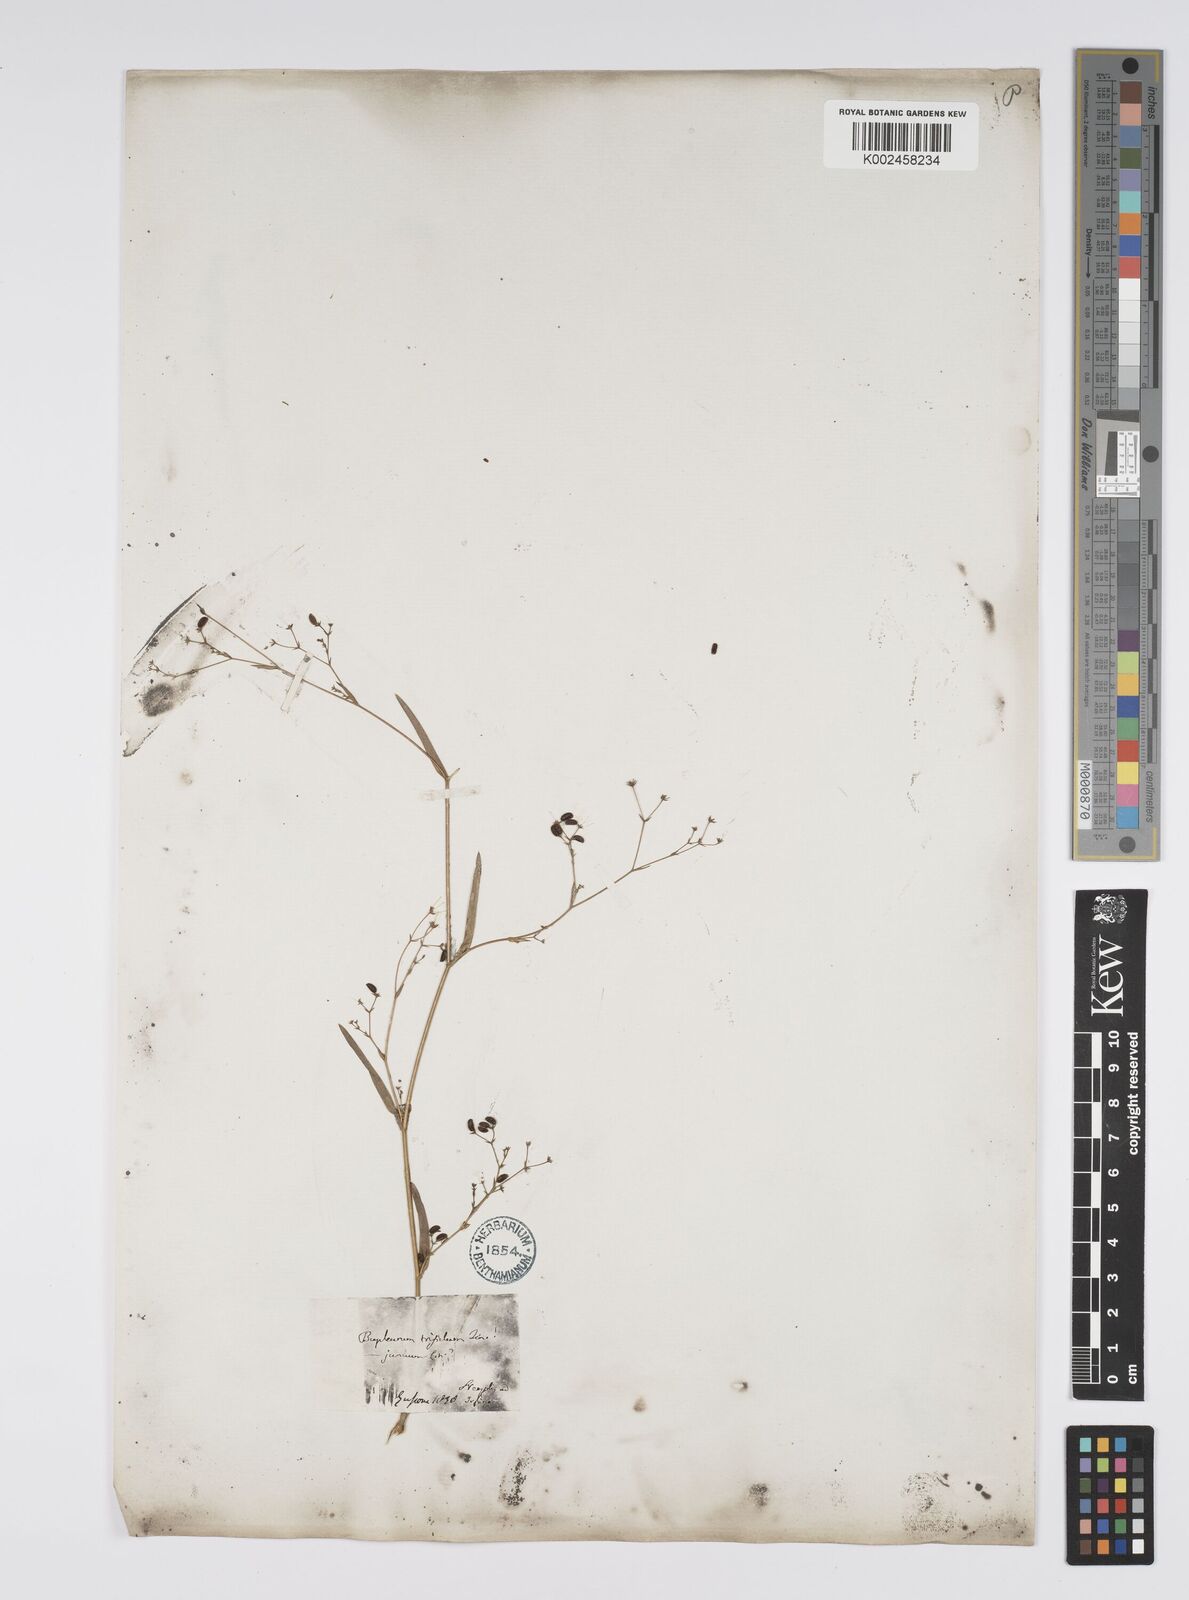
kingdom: Plantae
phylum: Tracheophyta
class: Magnoliopsida
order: Apiales
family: Apiaceae
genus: Bupleurum
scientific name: Bupleurum praealtum
